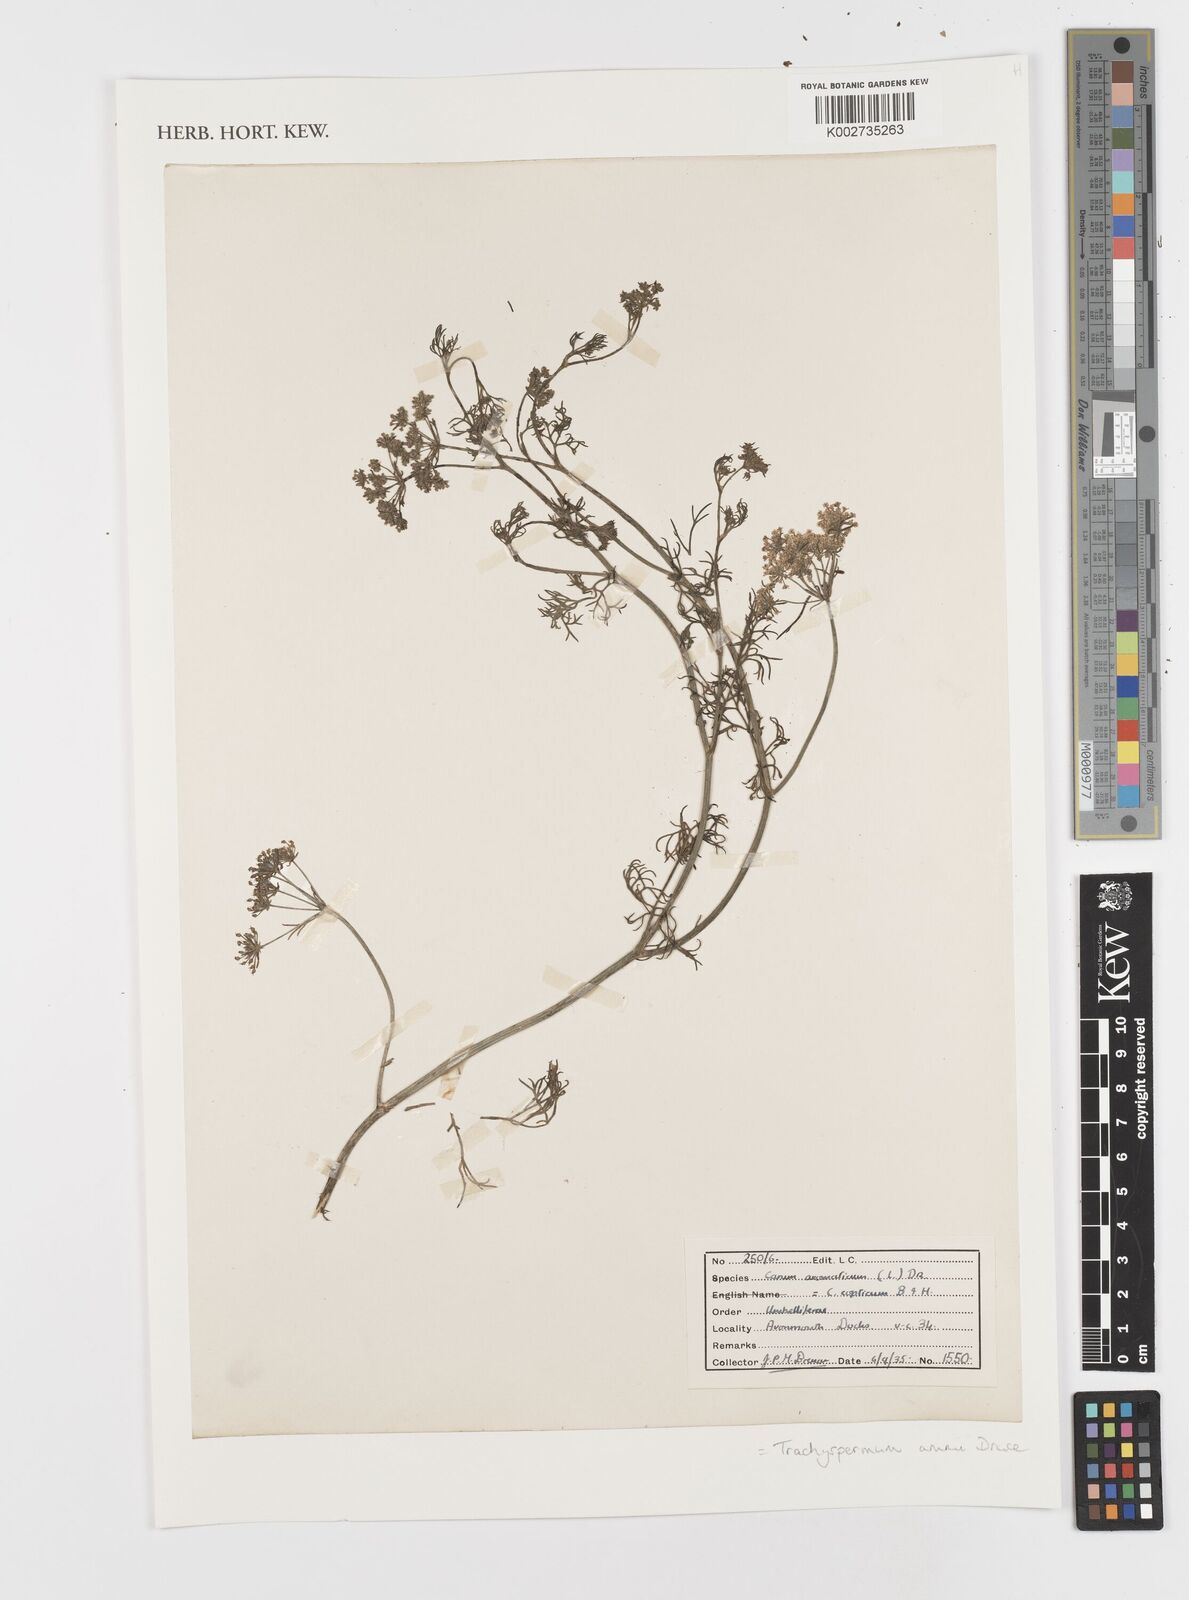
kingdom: Plantae
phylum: Tracheophyta
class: Magnoliopsida
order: Apiales
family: Apiaceae
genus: Trachyspermum
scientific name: Trachyspermum ammi
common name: Ajowan
